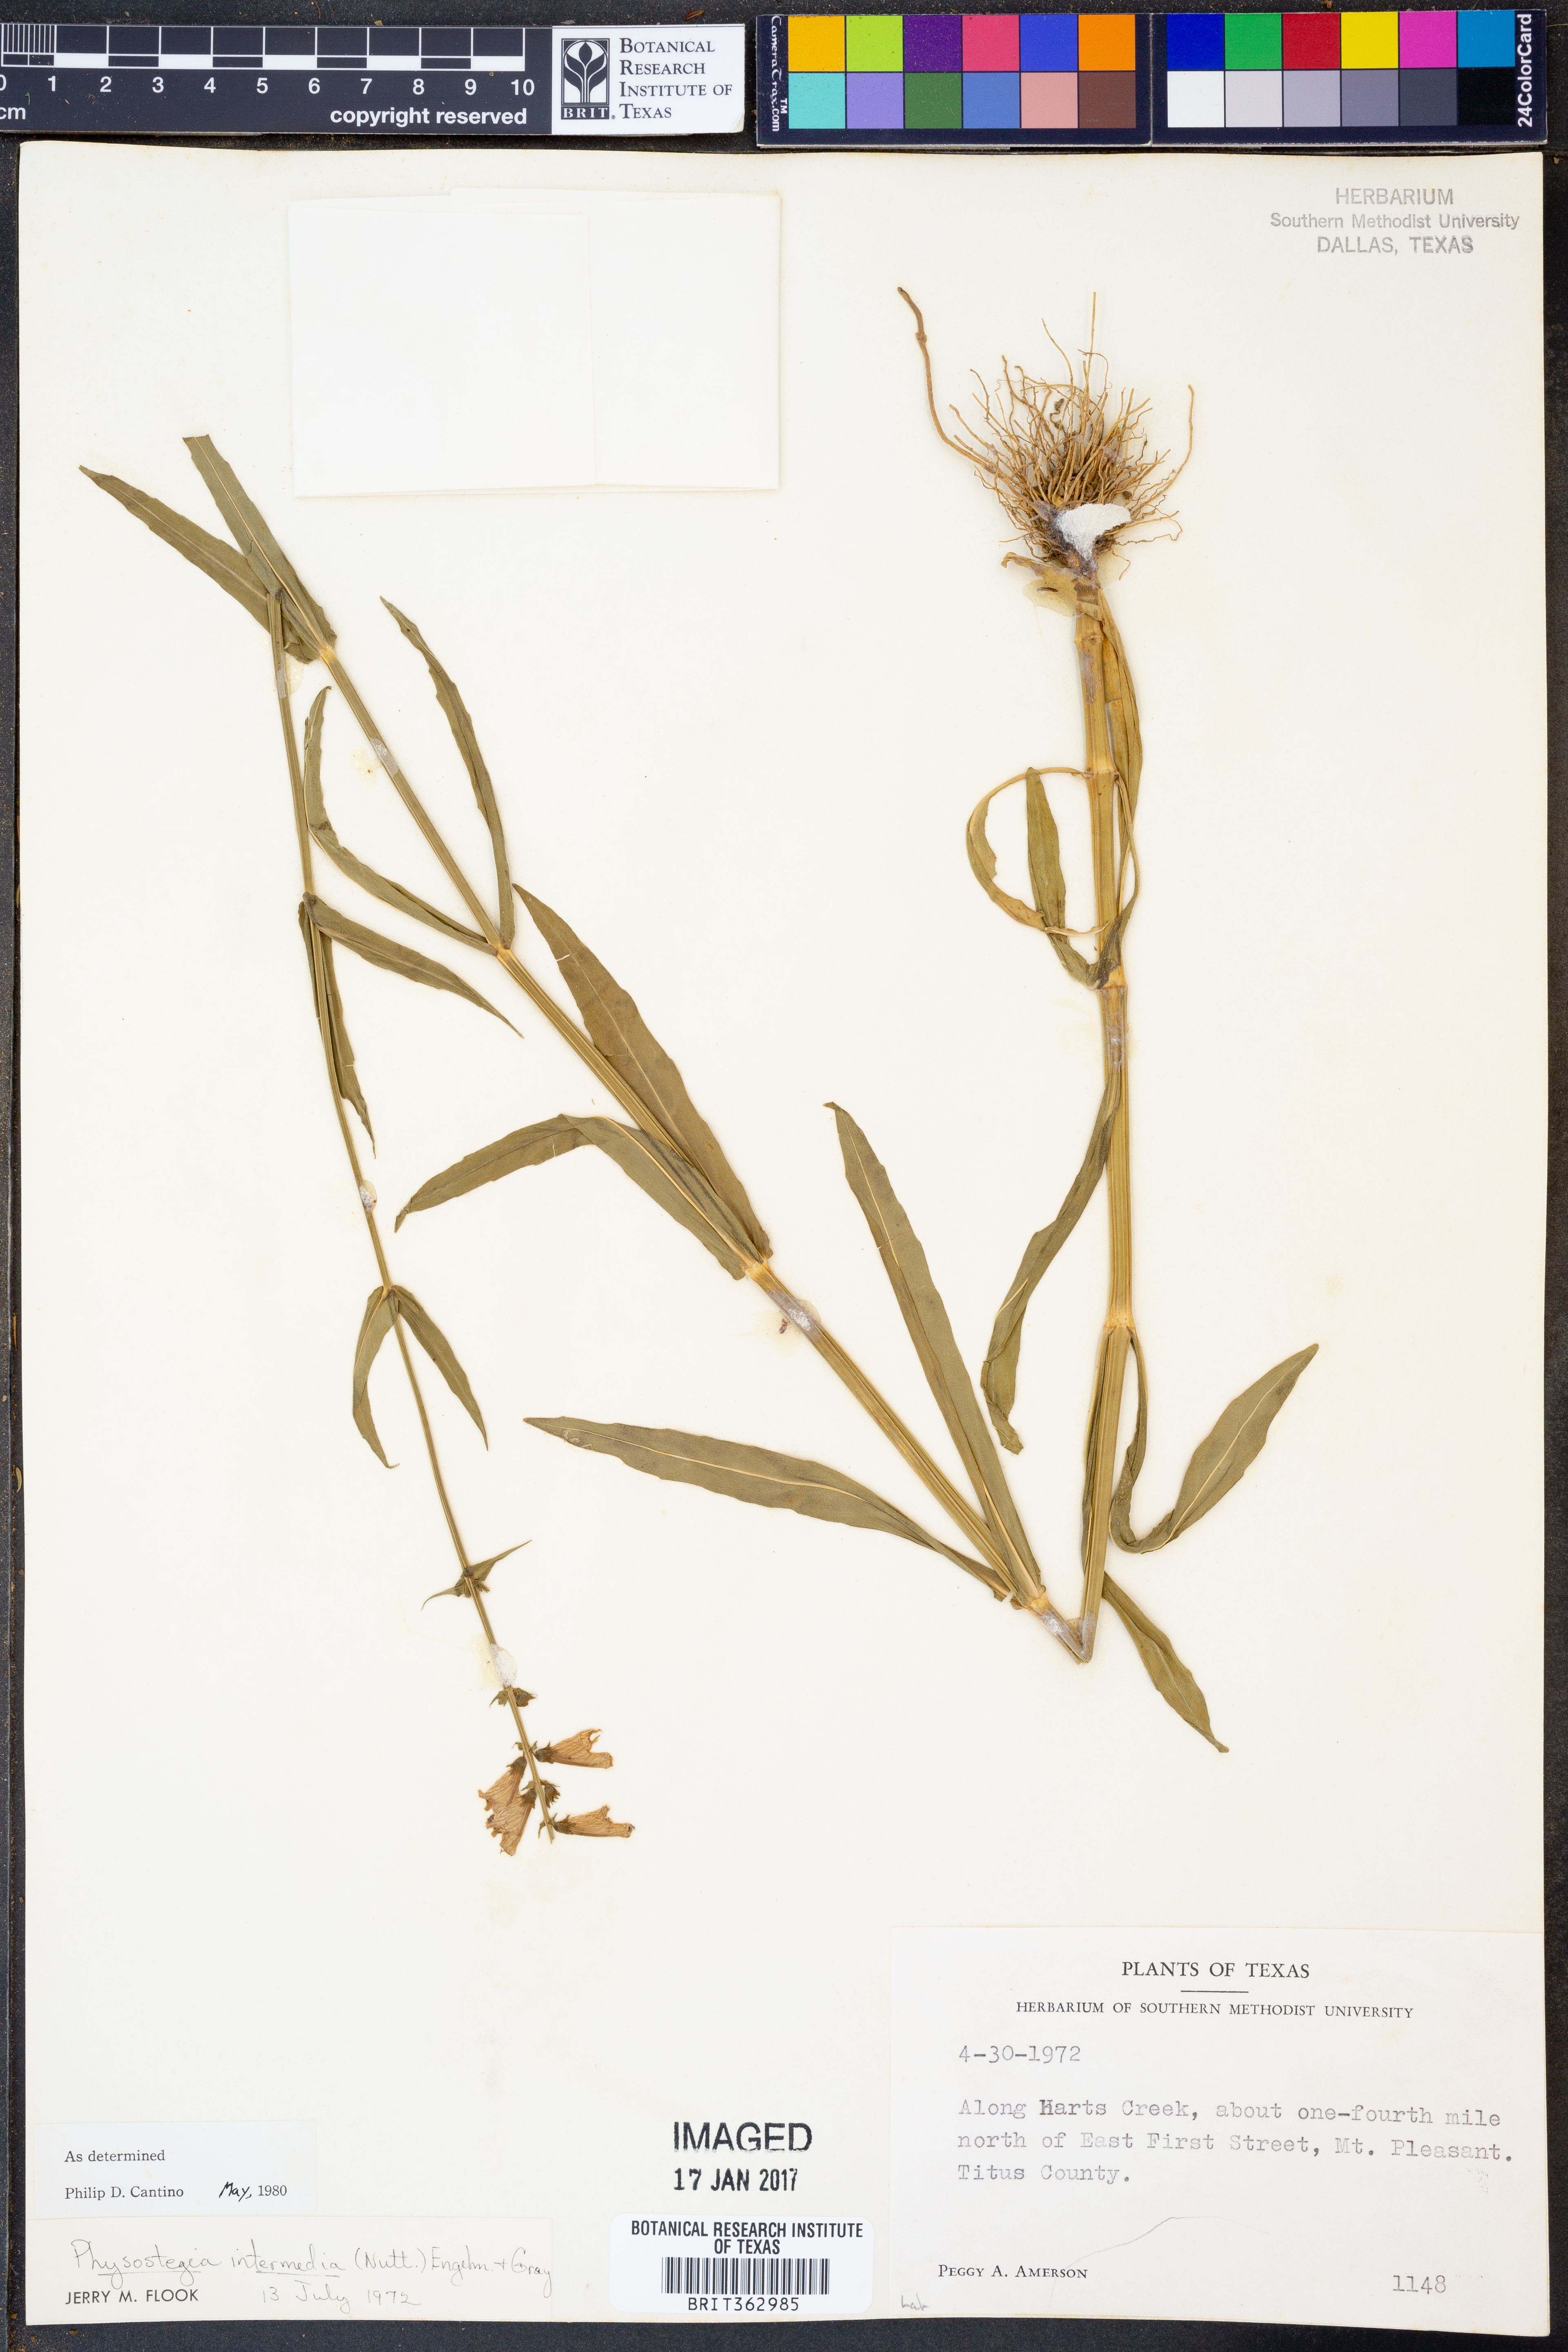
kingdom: Plantae
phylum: Tracheophyta
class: Magnoliopsida
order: Lamiales
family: Lamiaceae
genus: Physostegia
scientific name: Physostegia intermedia
